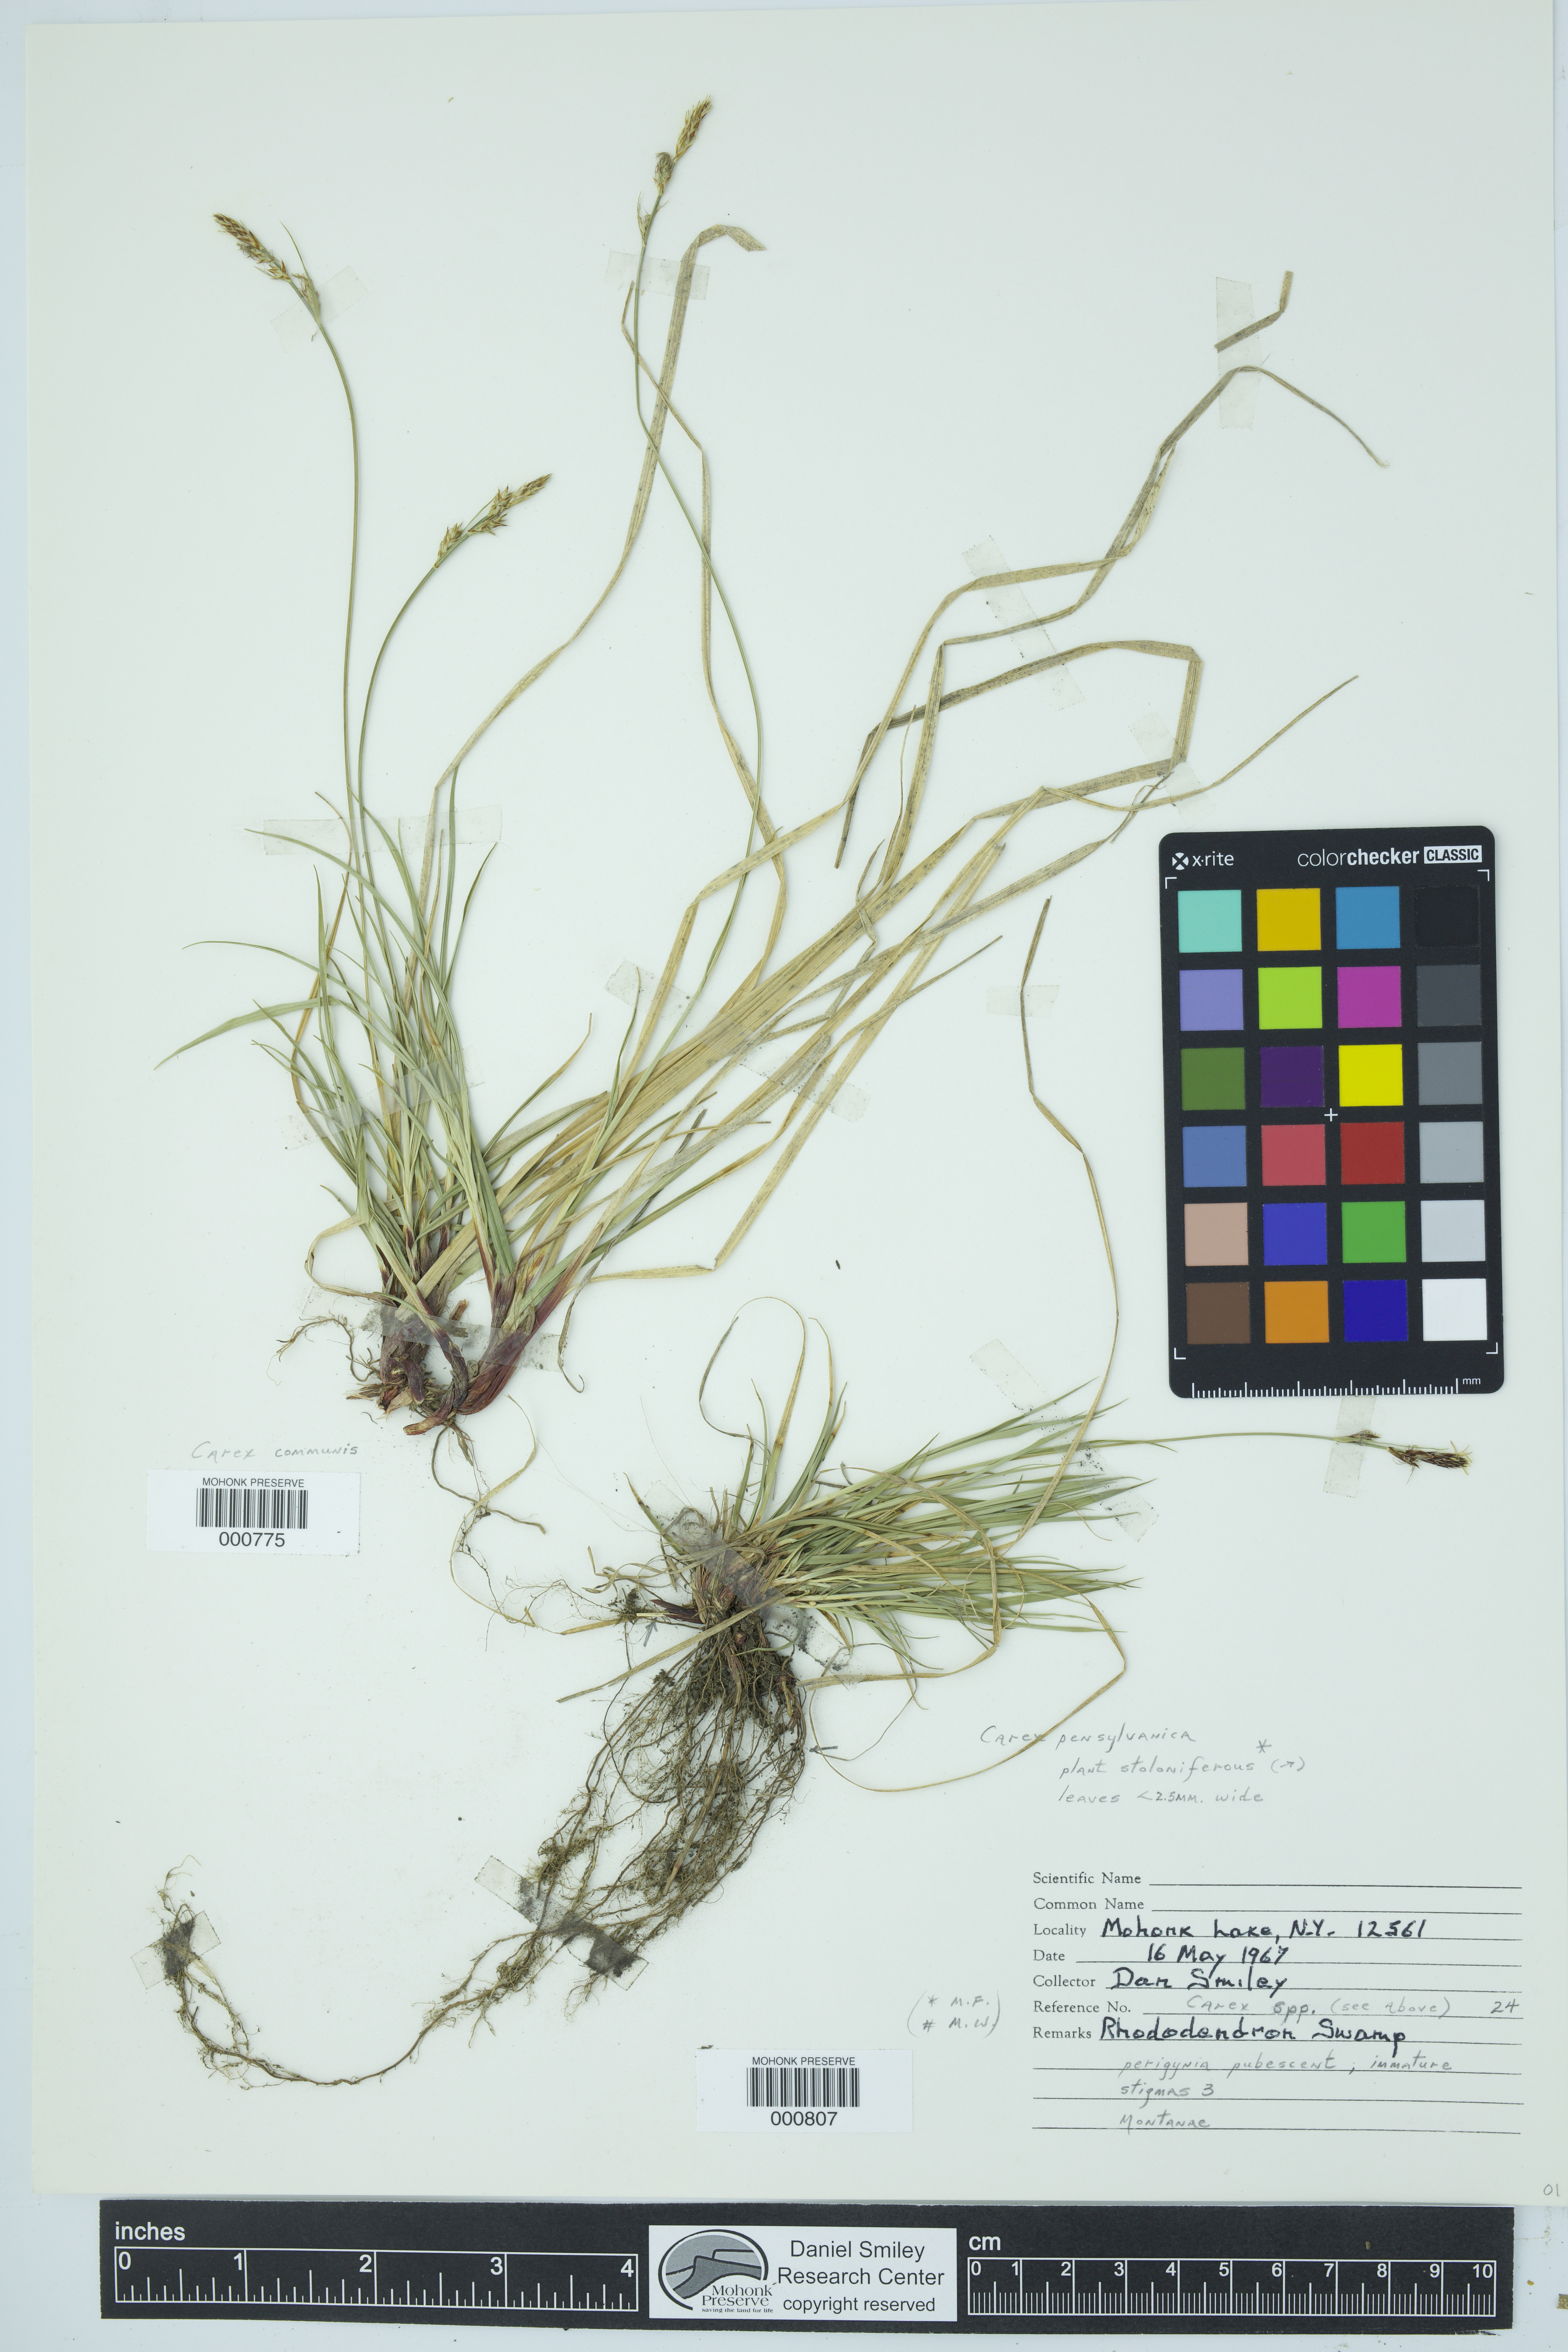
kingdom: Plantae
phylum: Tracheophyta
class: Liliopsida
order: Poales
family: Cyperaceae
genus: Carex
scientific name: Carex communis
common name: Colonial oak sedge
